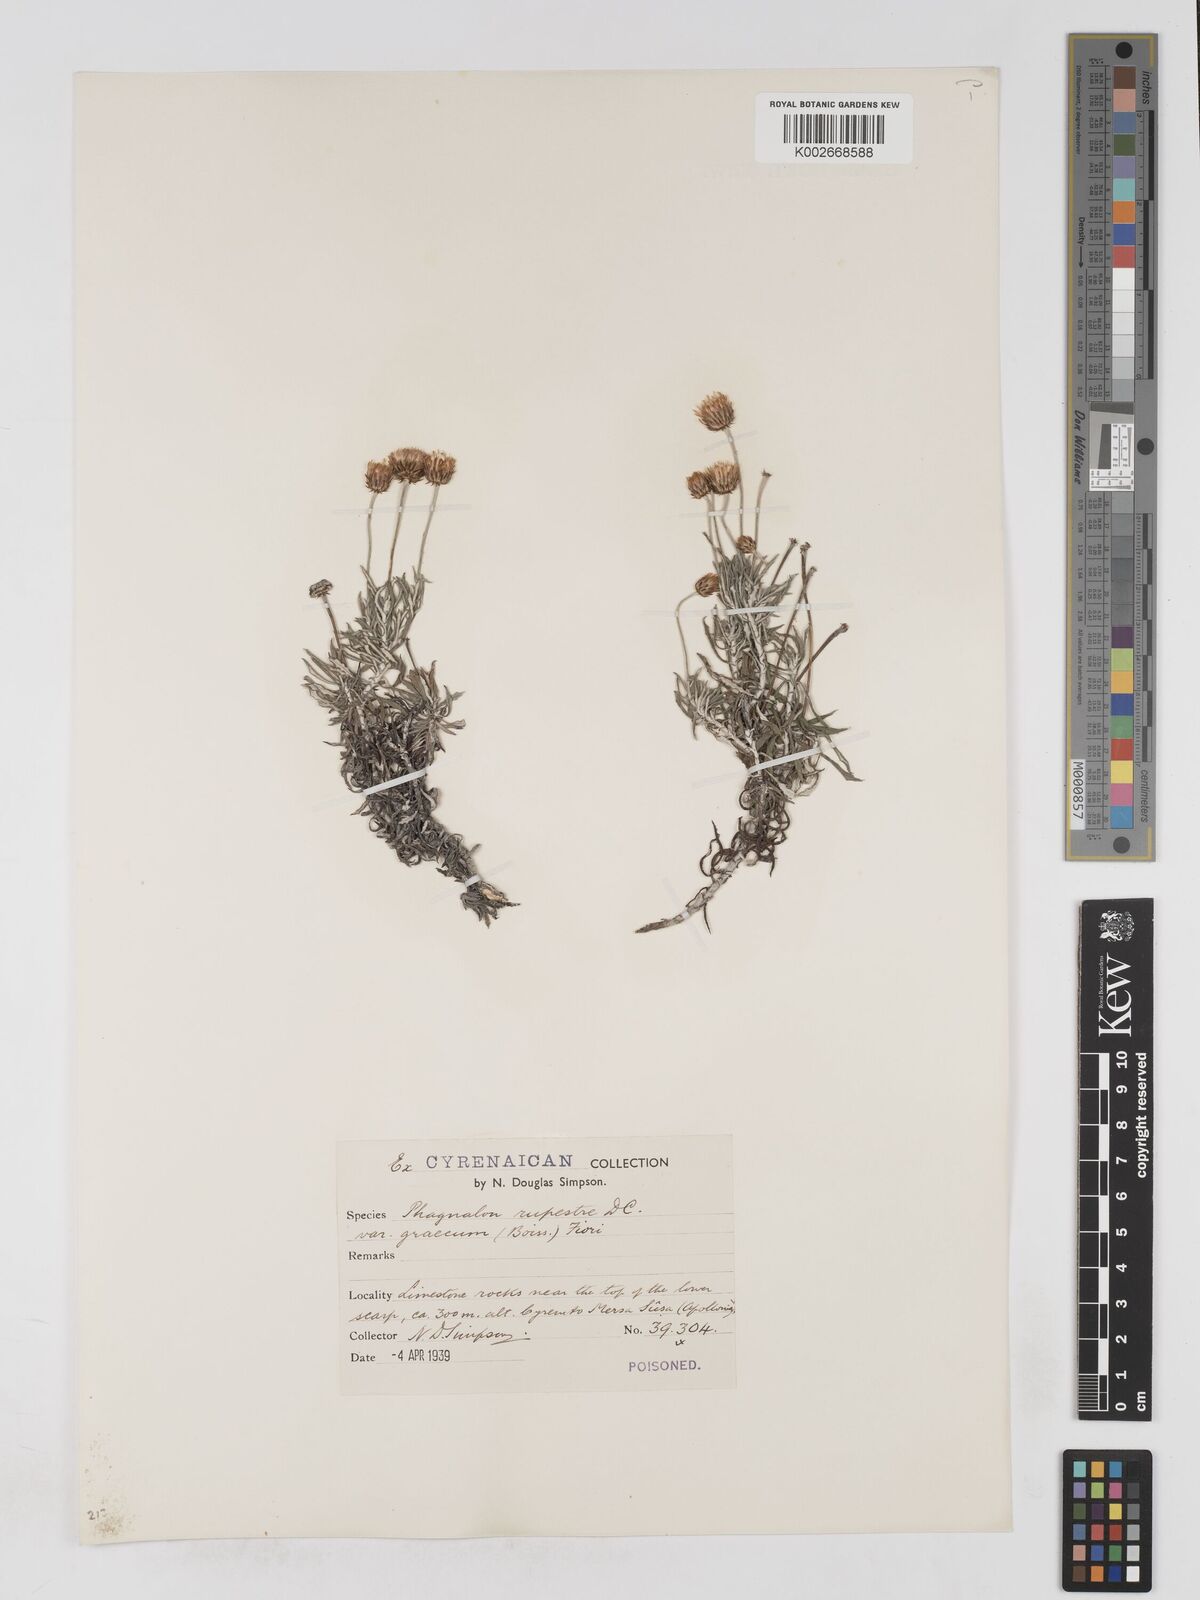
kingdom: Plantae
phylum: Tracheophyta
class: Magnoliopsida
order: Asterales
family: Asteraceae
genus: Phagnalon
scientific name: Phagnalon rupestre
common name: Rock phagnalon
